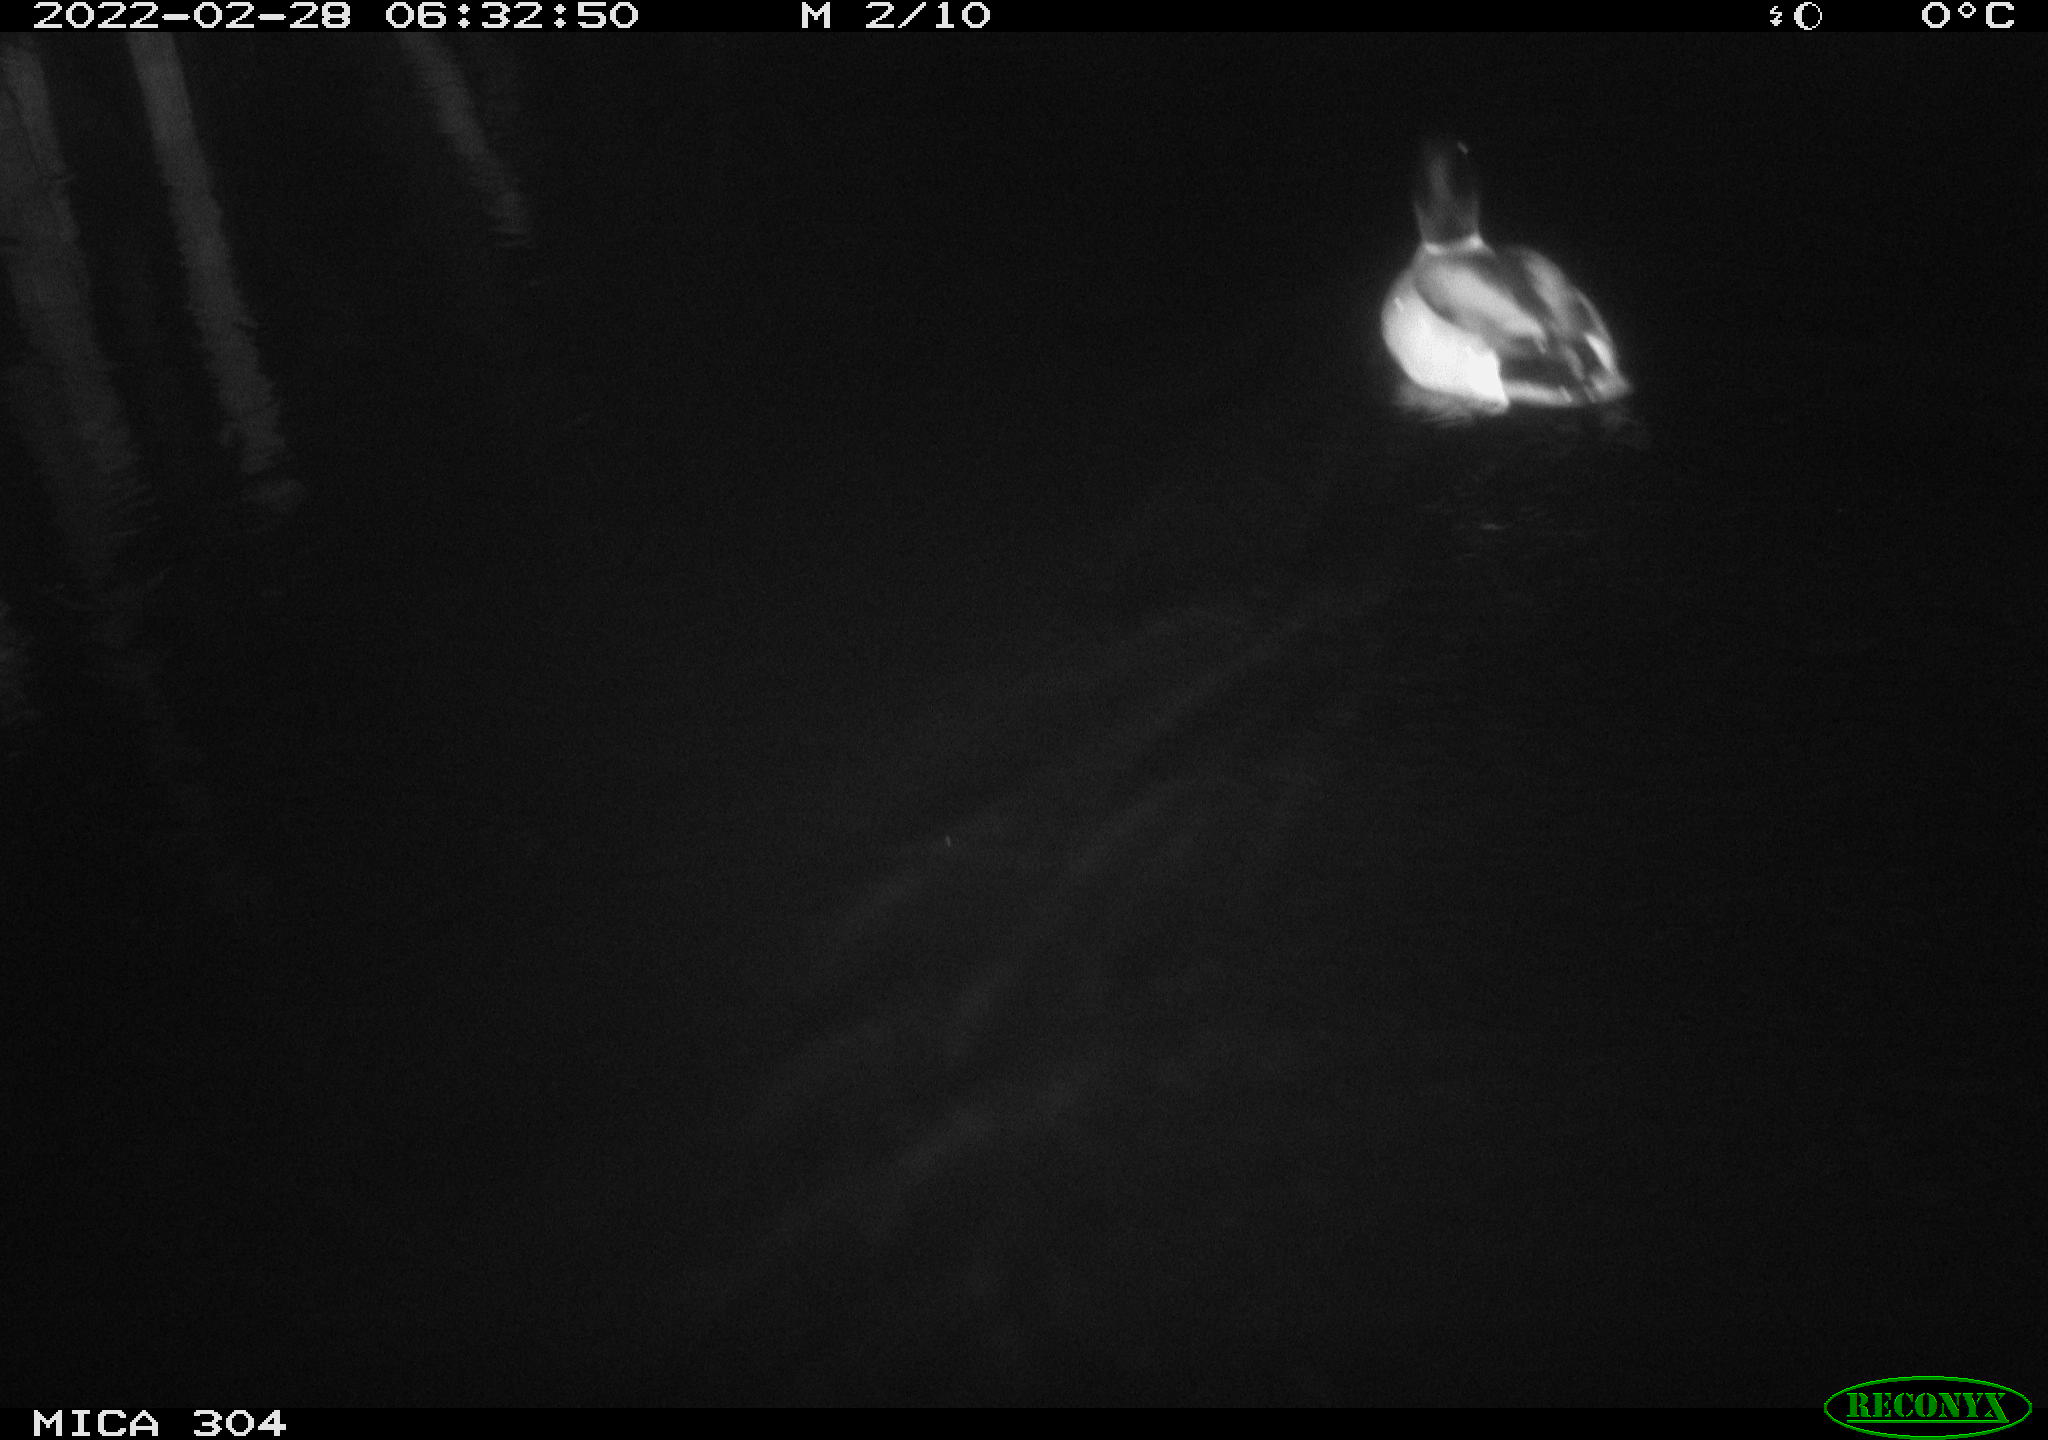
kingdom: Animalia
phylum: Chordata
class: Aves
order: Anseriformes
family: Anatidae
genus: Anas
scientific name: Anas platyrhynchos
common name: Mallard
